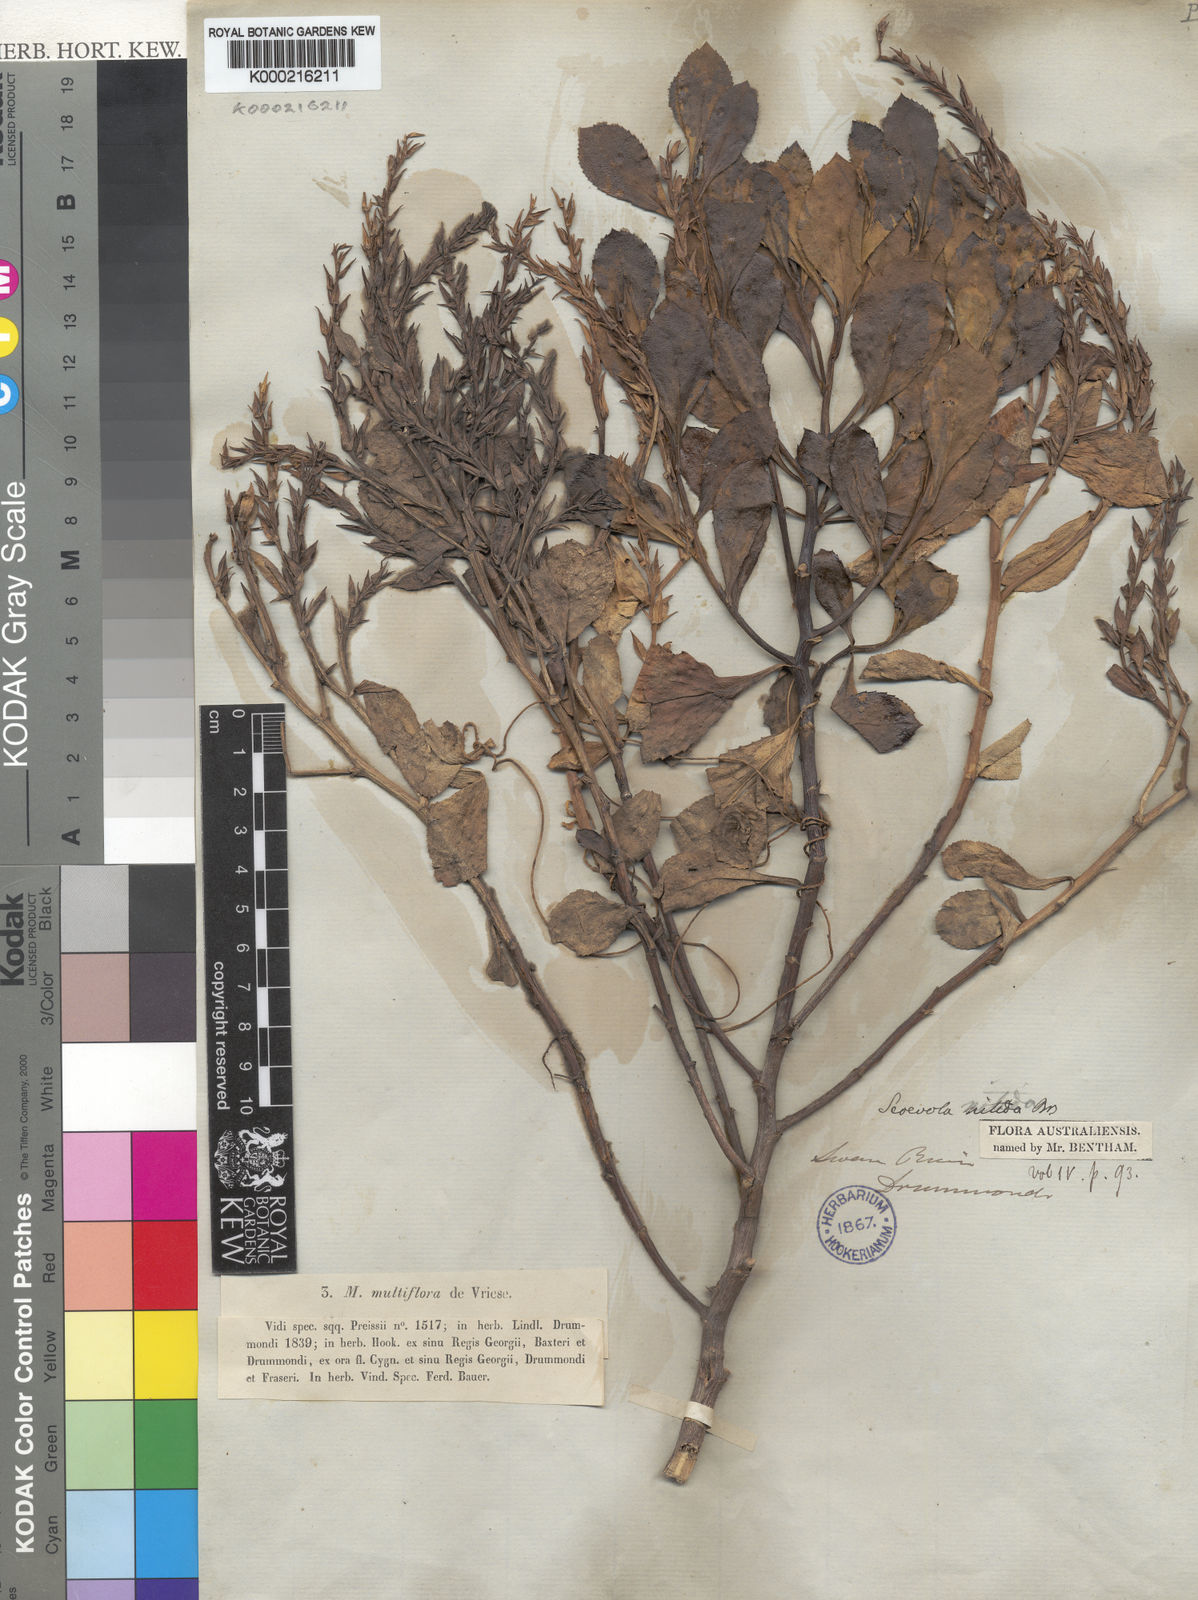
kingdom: Plantae
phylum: Tracheophyta
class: Magnoliopsida
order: Asterales
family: Goodeniaceae
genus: Scaevola
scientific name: Scaevola nitida
